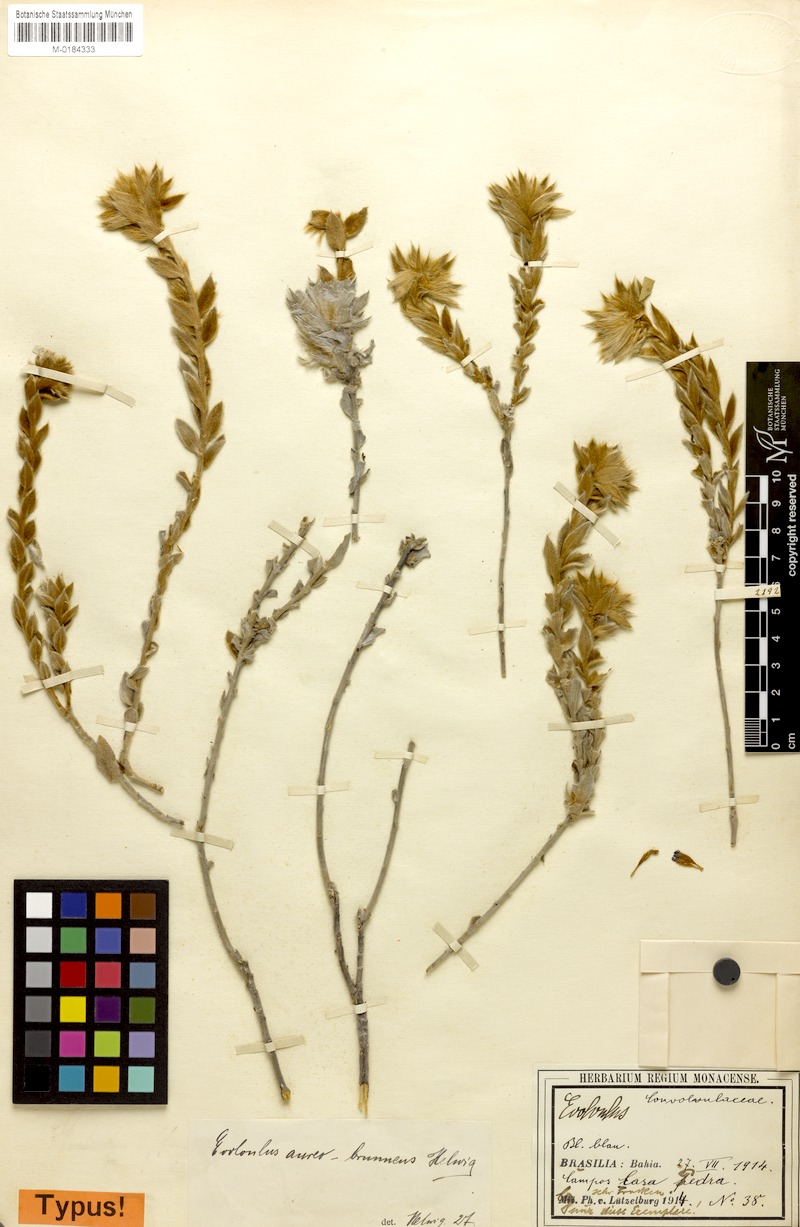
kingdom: Plantae
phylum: Tracheophyta
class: Magnoliopsida
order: Solanales
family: Convolvulaceae
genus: Evolvulus
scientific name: Evolvulus helichrysoides
